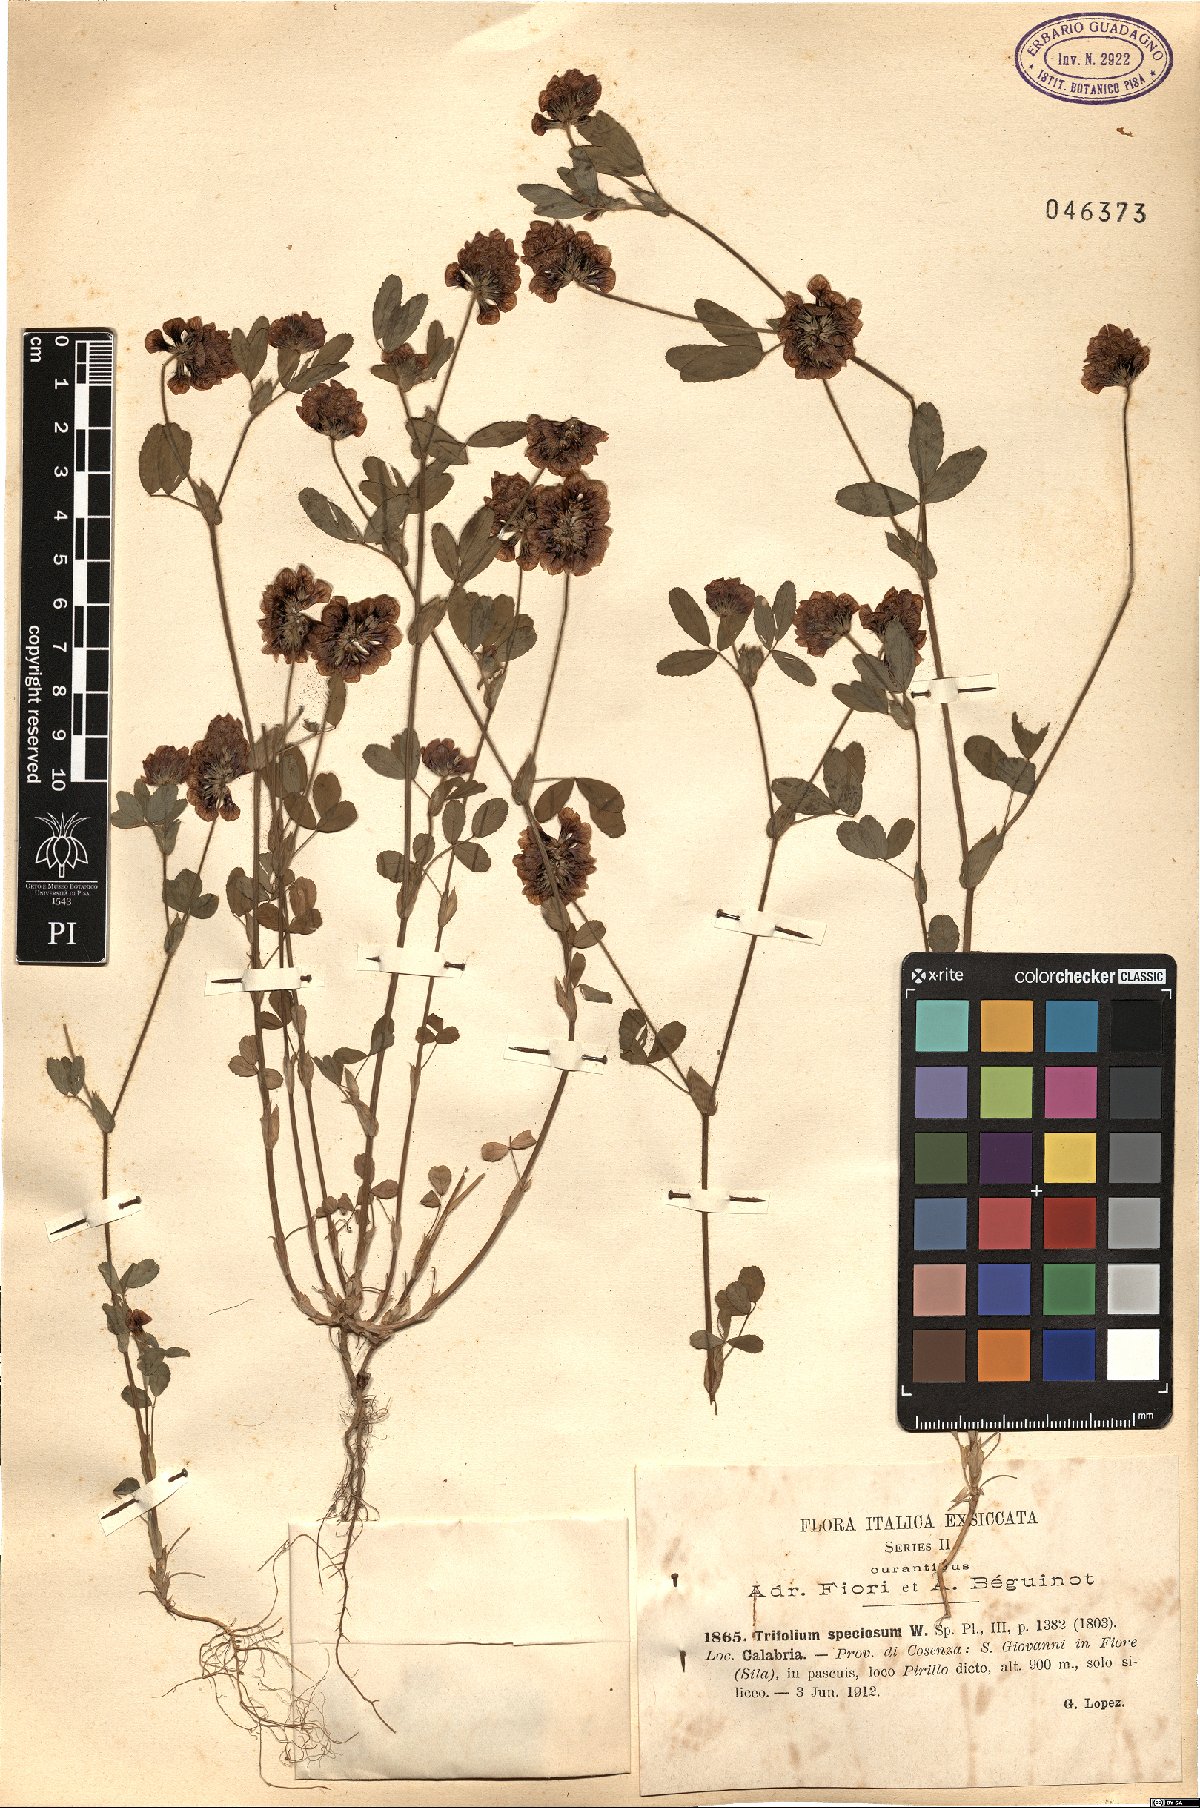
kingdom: Plantae
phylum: Tracheophyta
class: Magnoliopsida
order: Fabales
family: Fabaceae
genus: Trifolium
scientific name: Trifolium grandiflorum
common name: Large-flower hop clover
